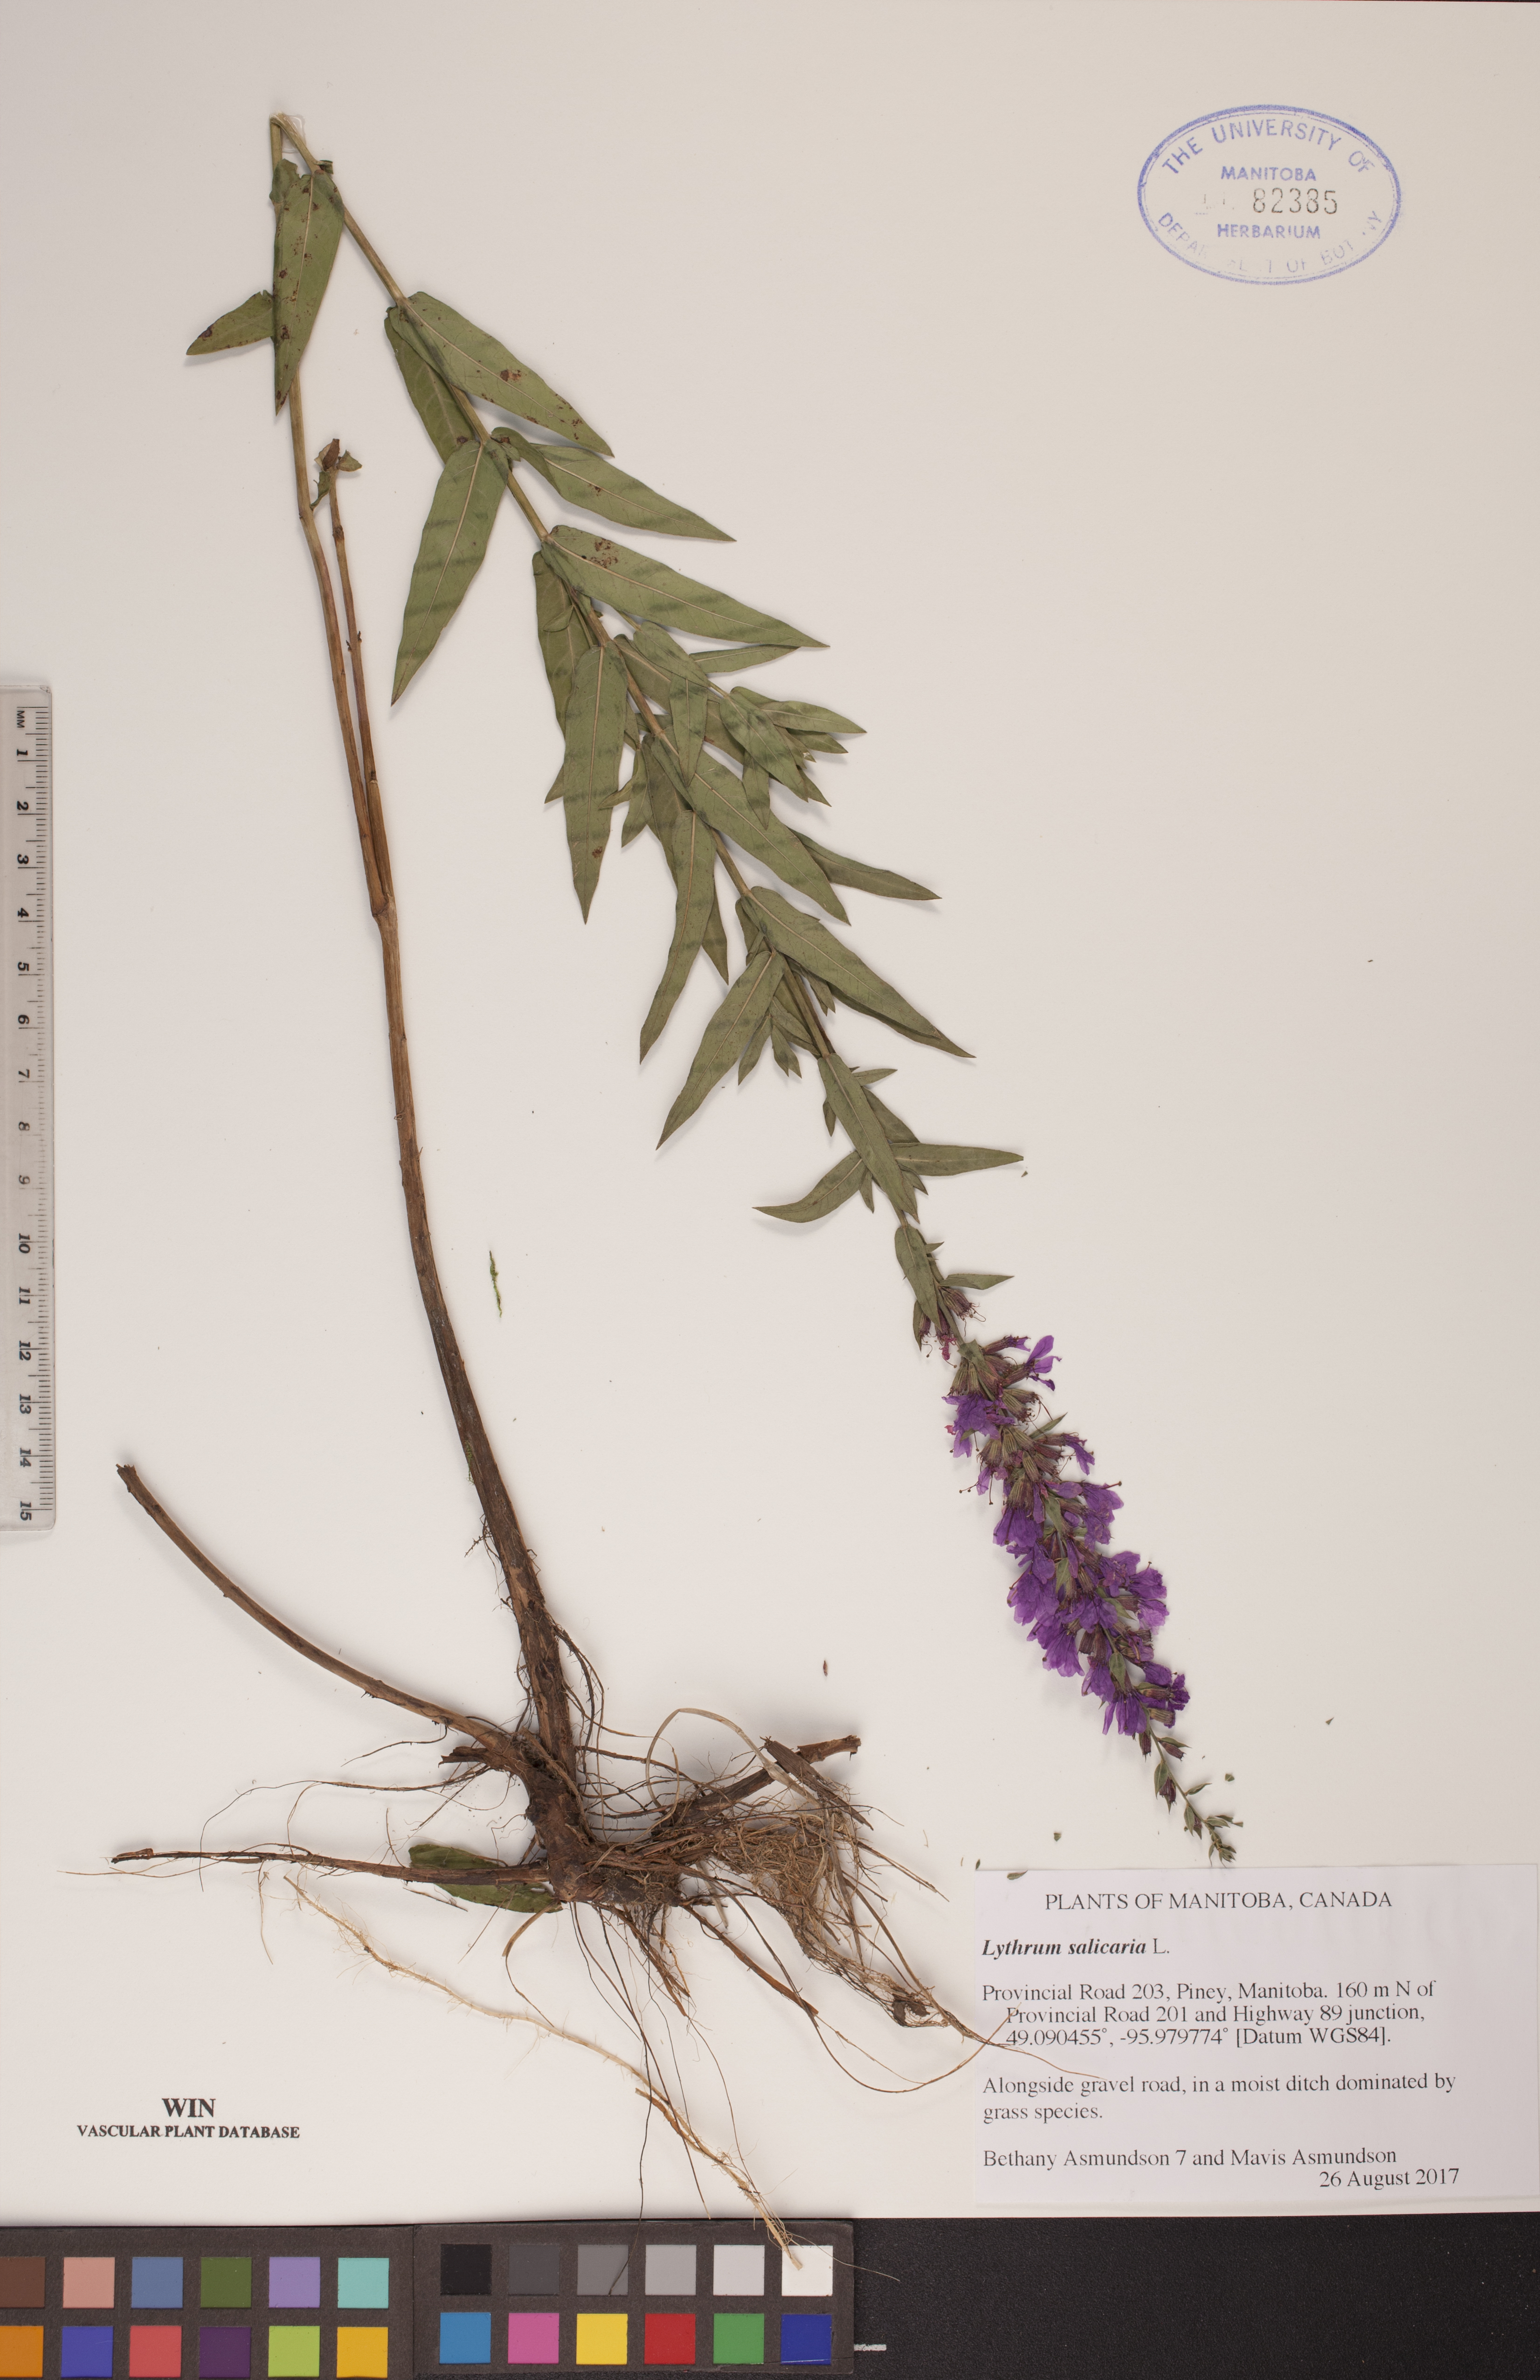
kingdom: Plantae
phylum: Tracheophyta
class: Magnoliopsida
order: Myrtales
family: Lythraceae
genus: Lythrum
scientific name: Lythrum salicaria
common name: Purple loosestrife
